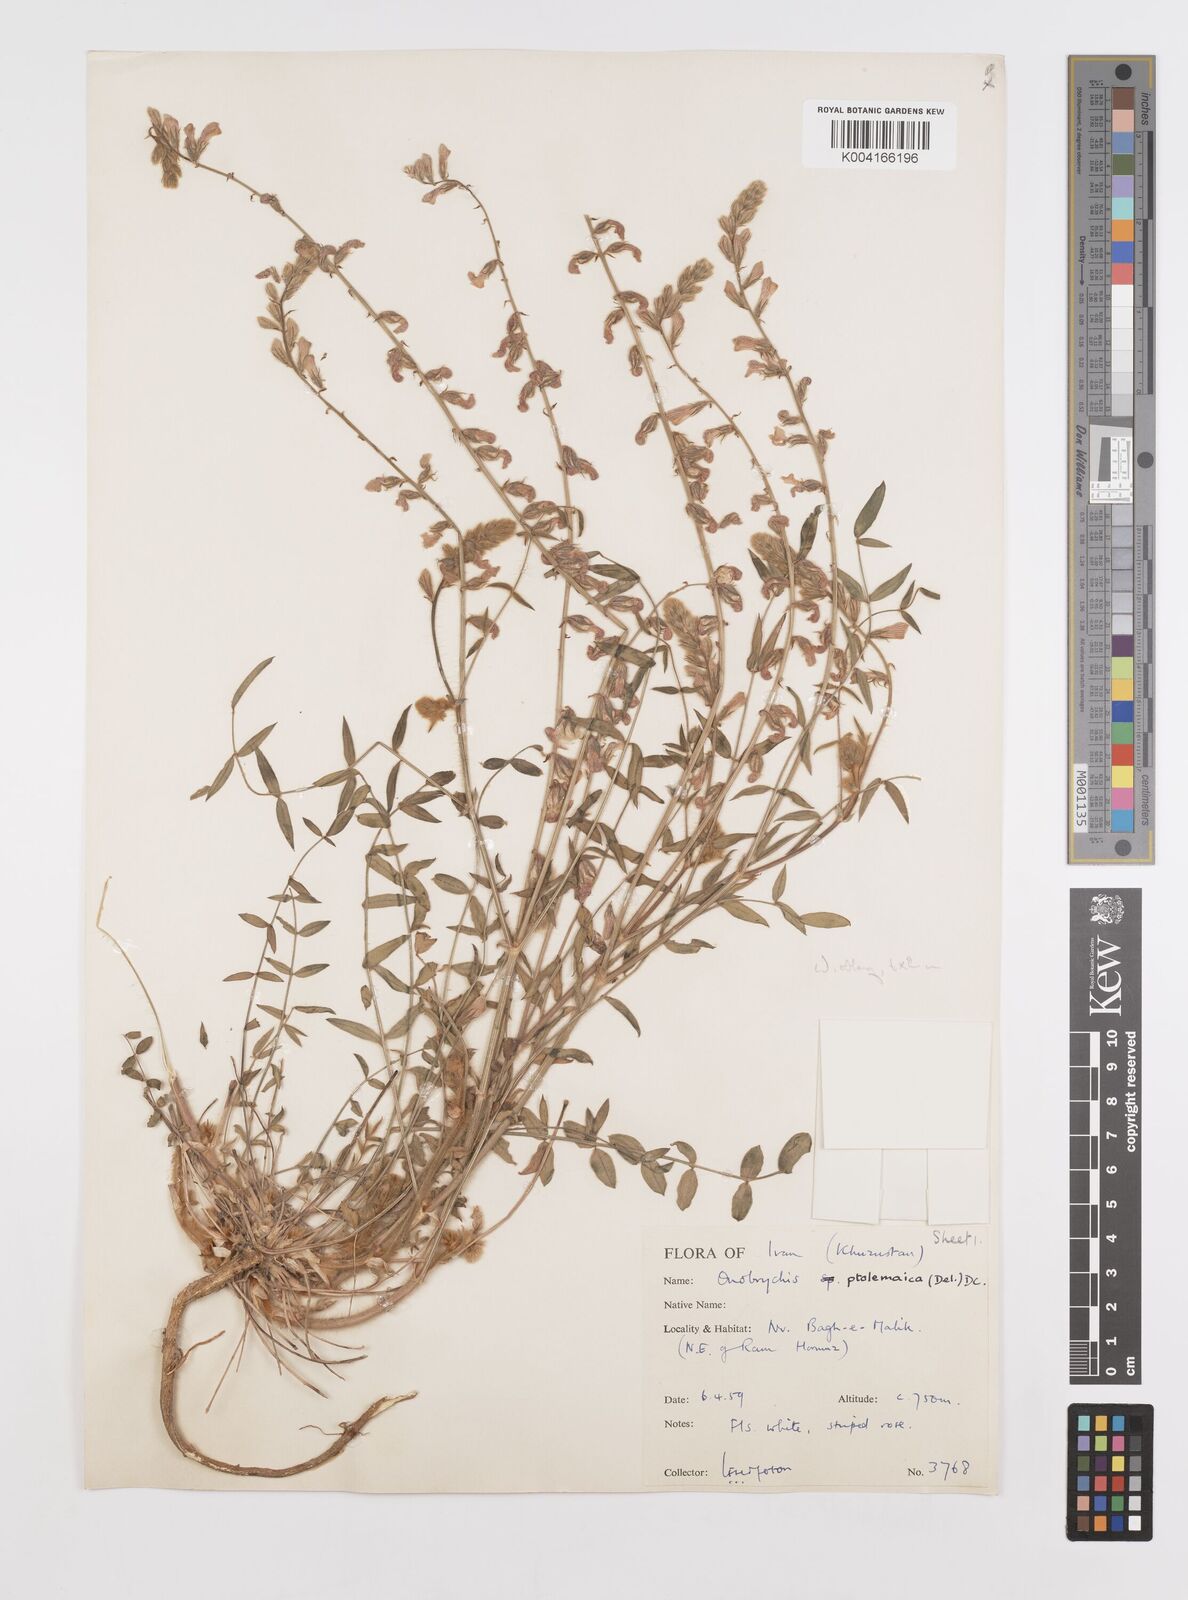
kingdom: Plantae
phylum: Tracheophyta
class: Magnoliopsida
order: Fabales
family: Fabaceae
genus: Onobrychis
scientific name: Onobrychis ptolemaica
